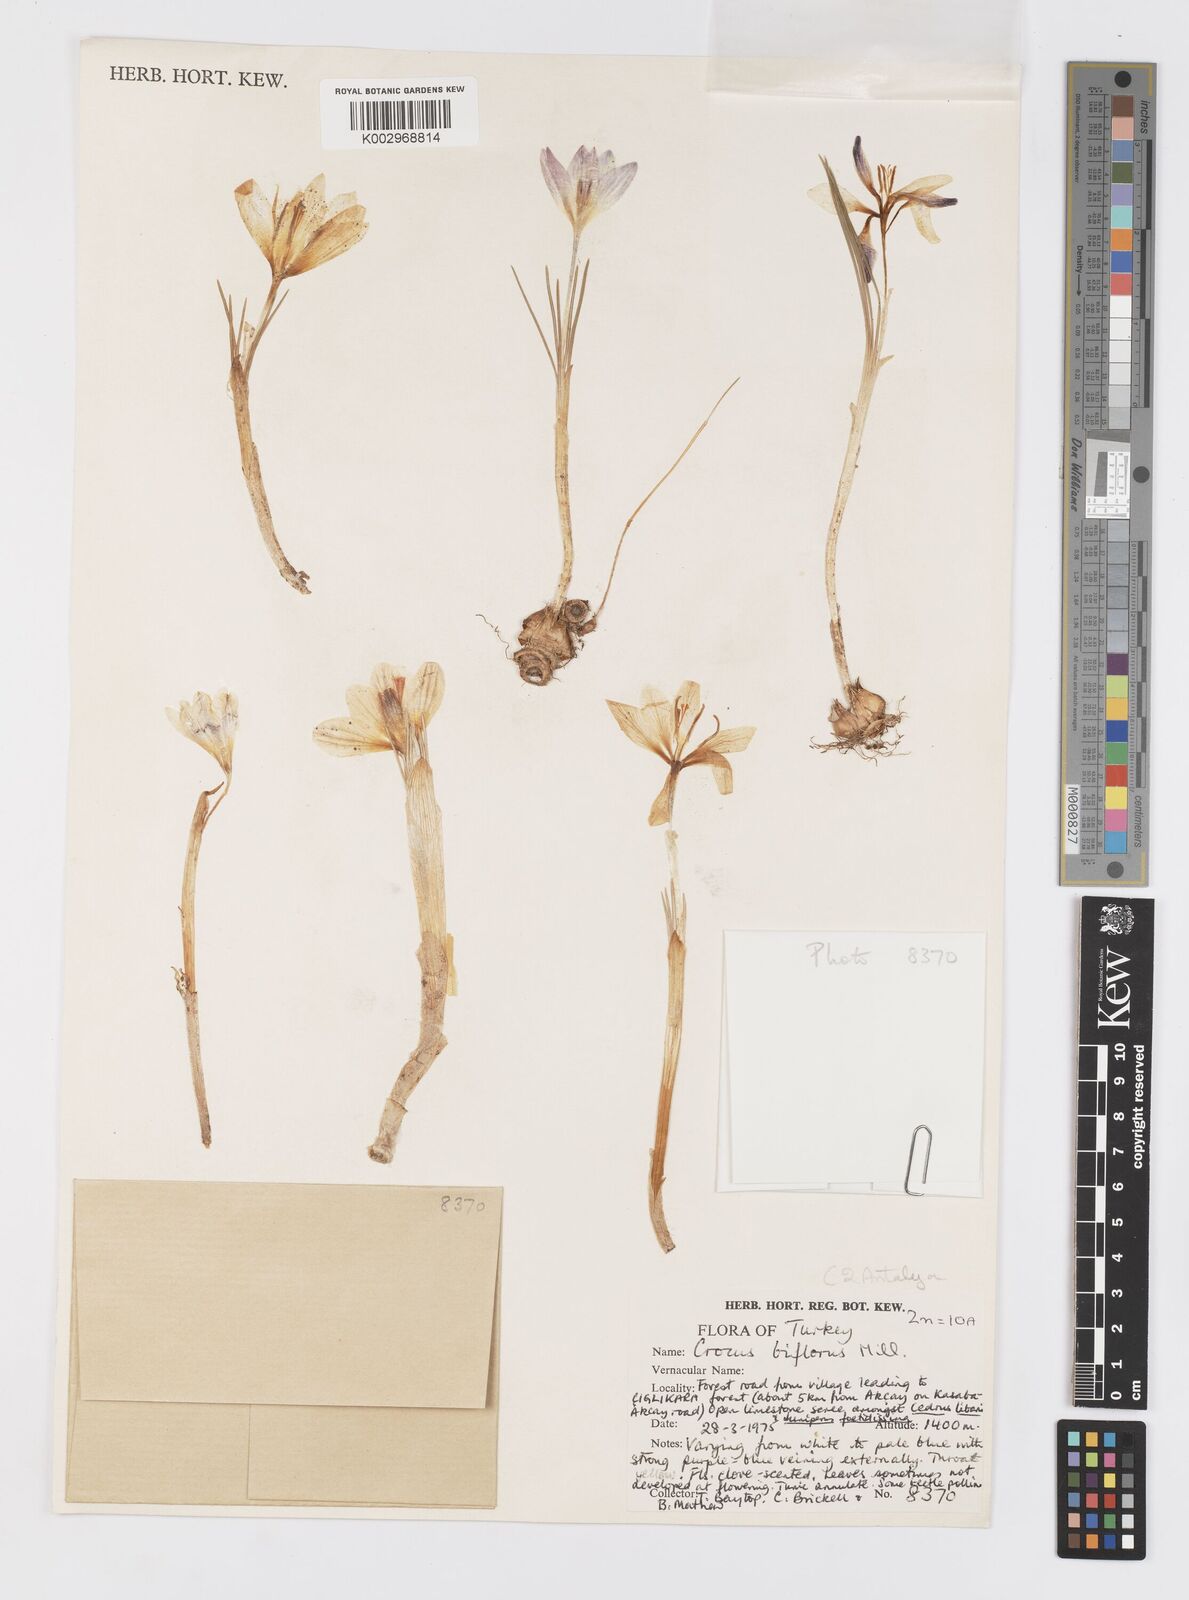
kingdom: Plantae
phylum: Tracheophyta
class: Liliopsida
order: Asparagales
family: Iridaceae
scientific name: Iridaceae
